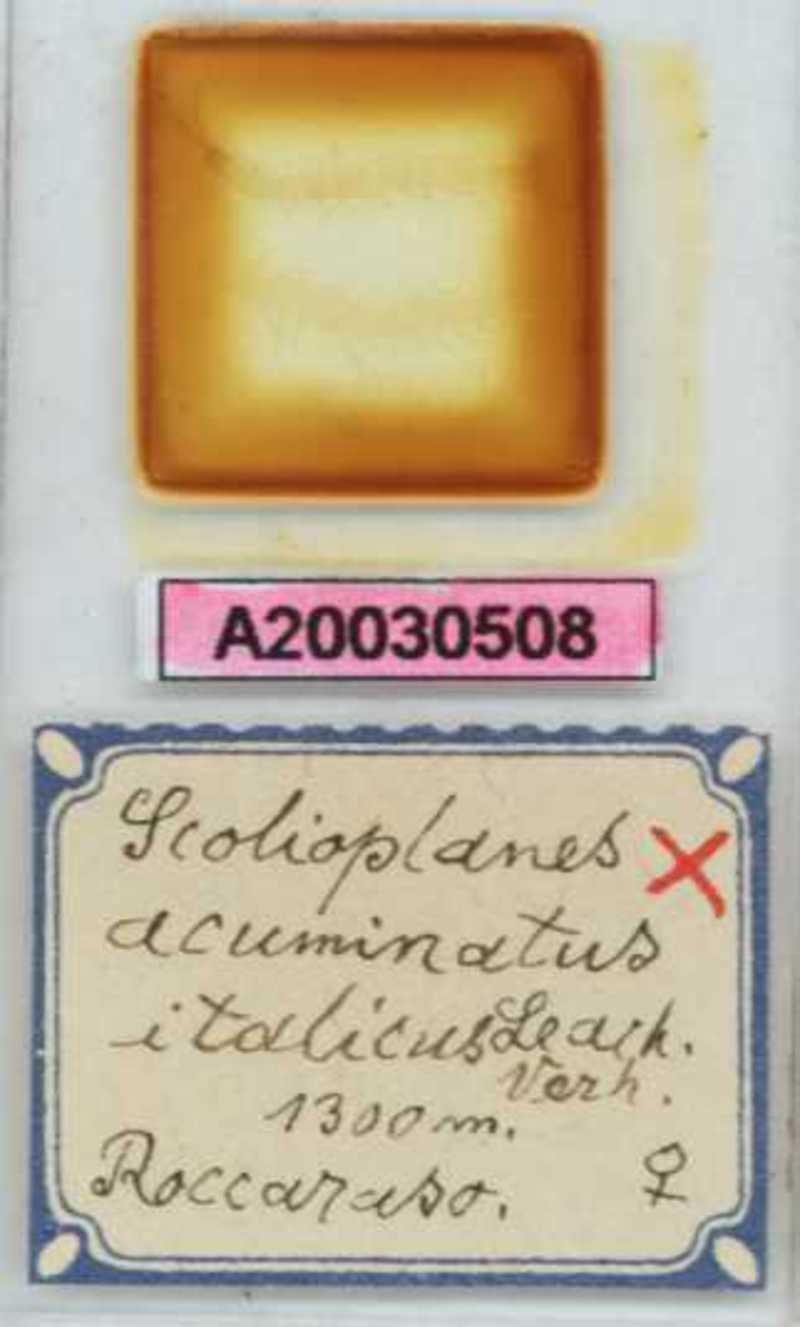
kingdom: Animalia
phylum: Arthropoda
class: Chilopoda
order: Geophilomorpha
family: Linotaeniidae
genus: Strigamia
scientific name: Strigamia acuminata
